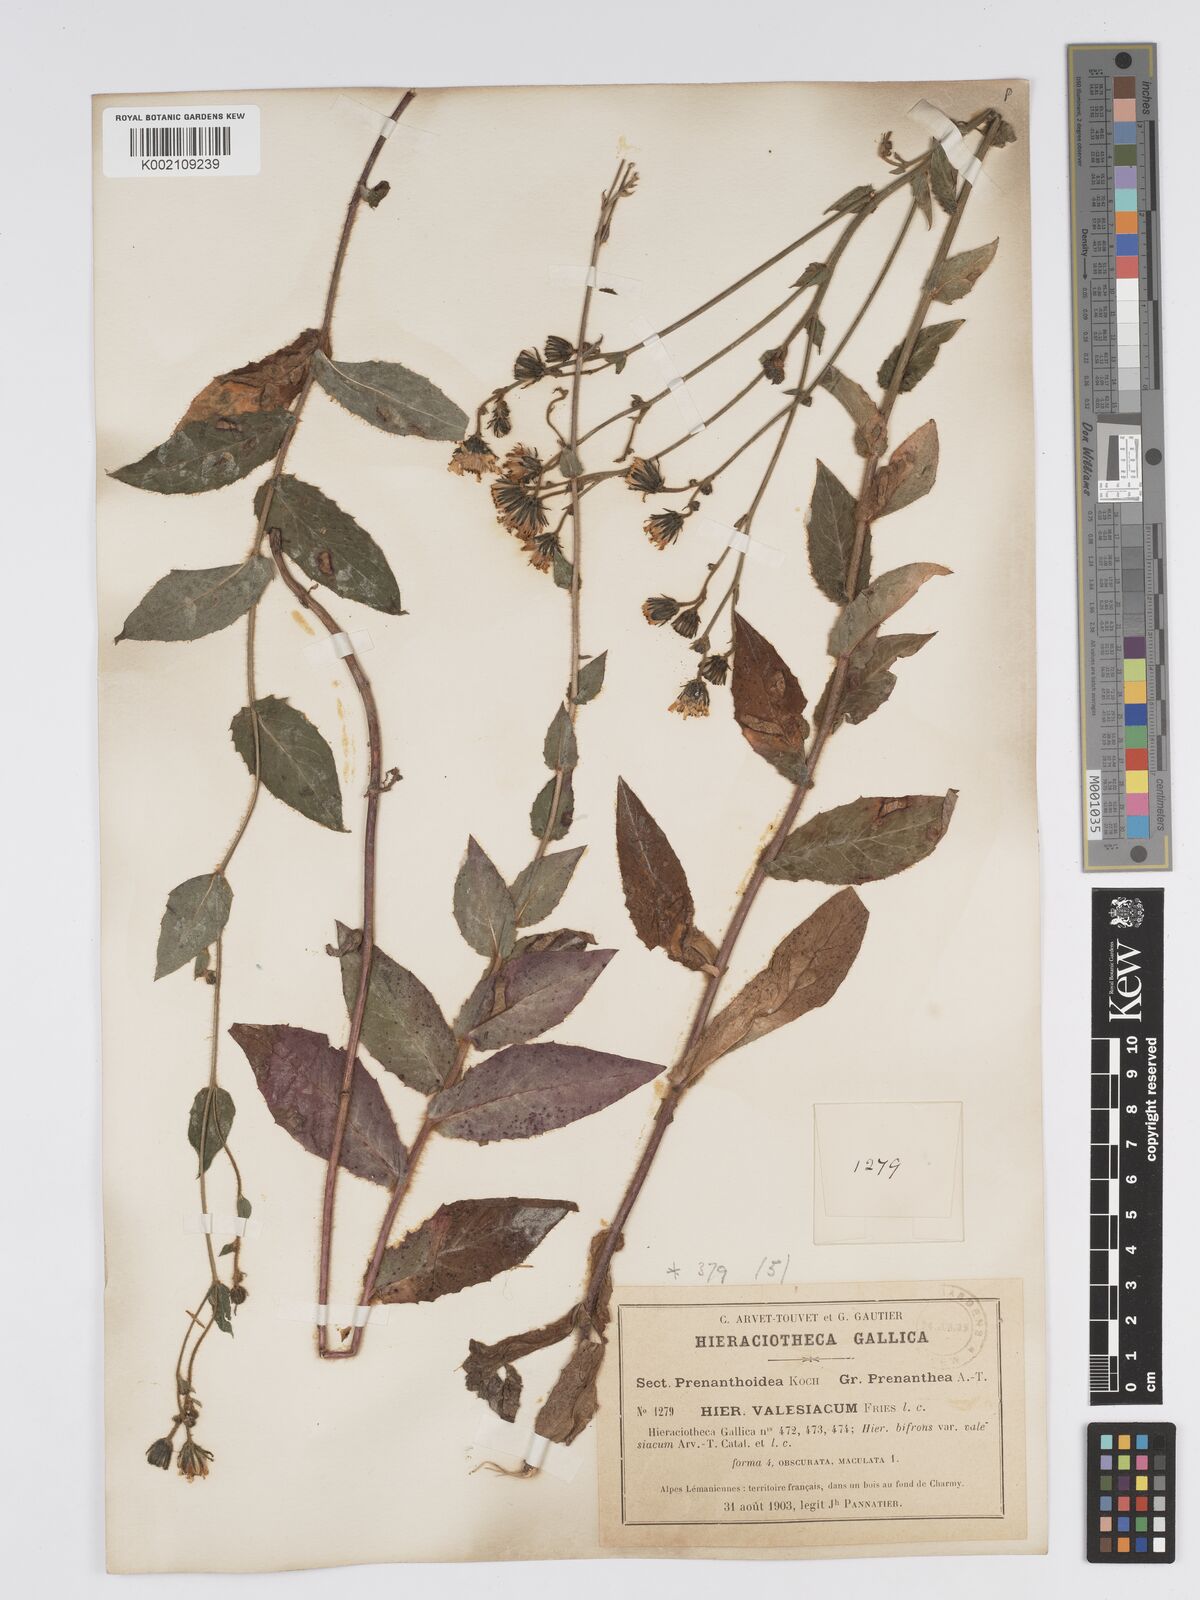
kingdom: Plantae
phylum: Tracheophyta
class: Magnoliopsida
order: Asterales
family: Asteraceae
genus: Hieracium
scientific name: Hieracium lycopifolium
